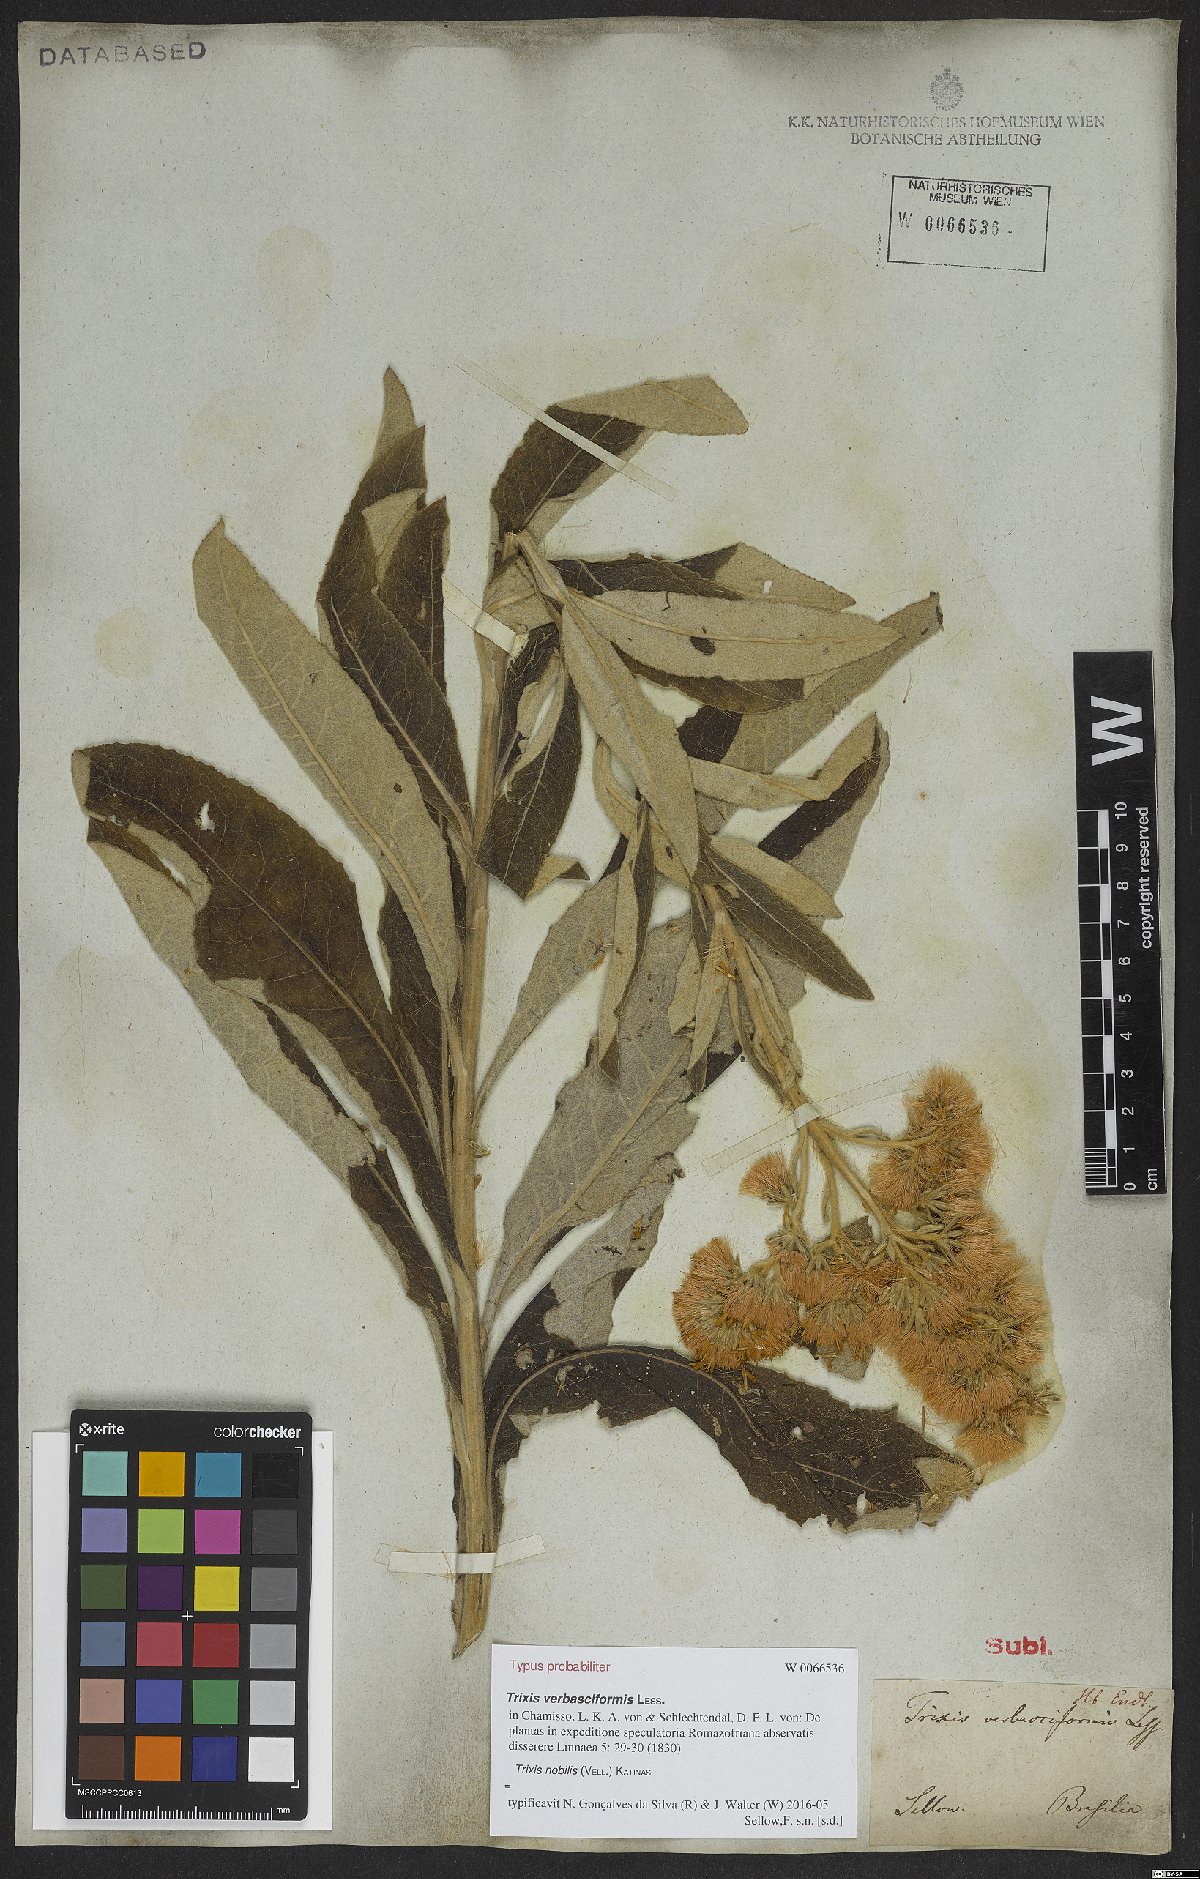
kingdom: Plantae
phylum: Tracheophyta
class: Magnoliopsida
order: Asterales
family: Asteraceae
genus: Trixis
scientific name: Trixis nobilis
